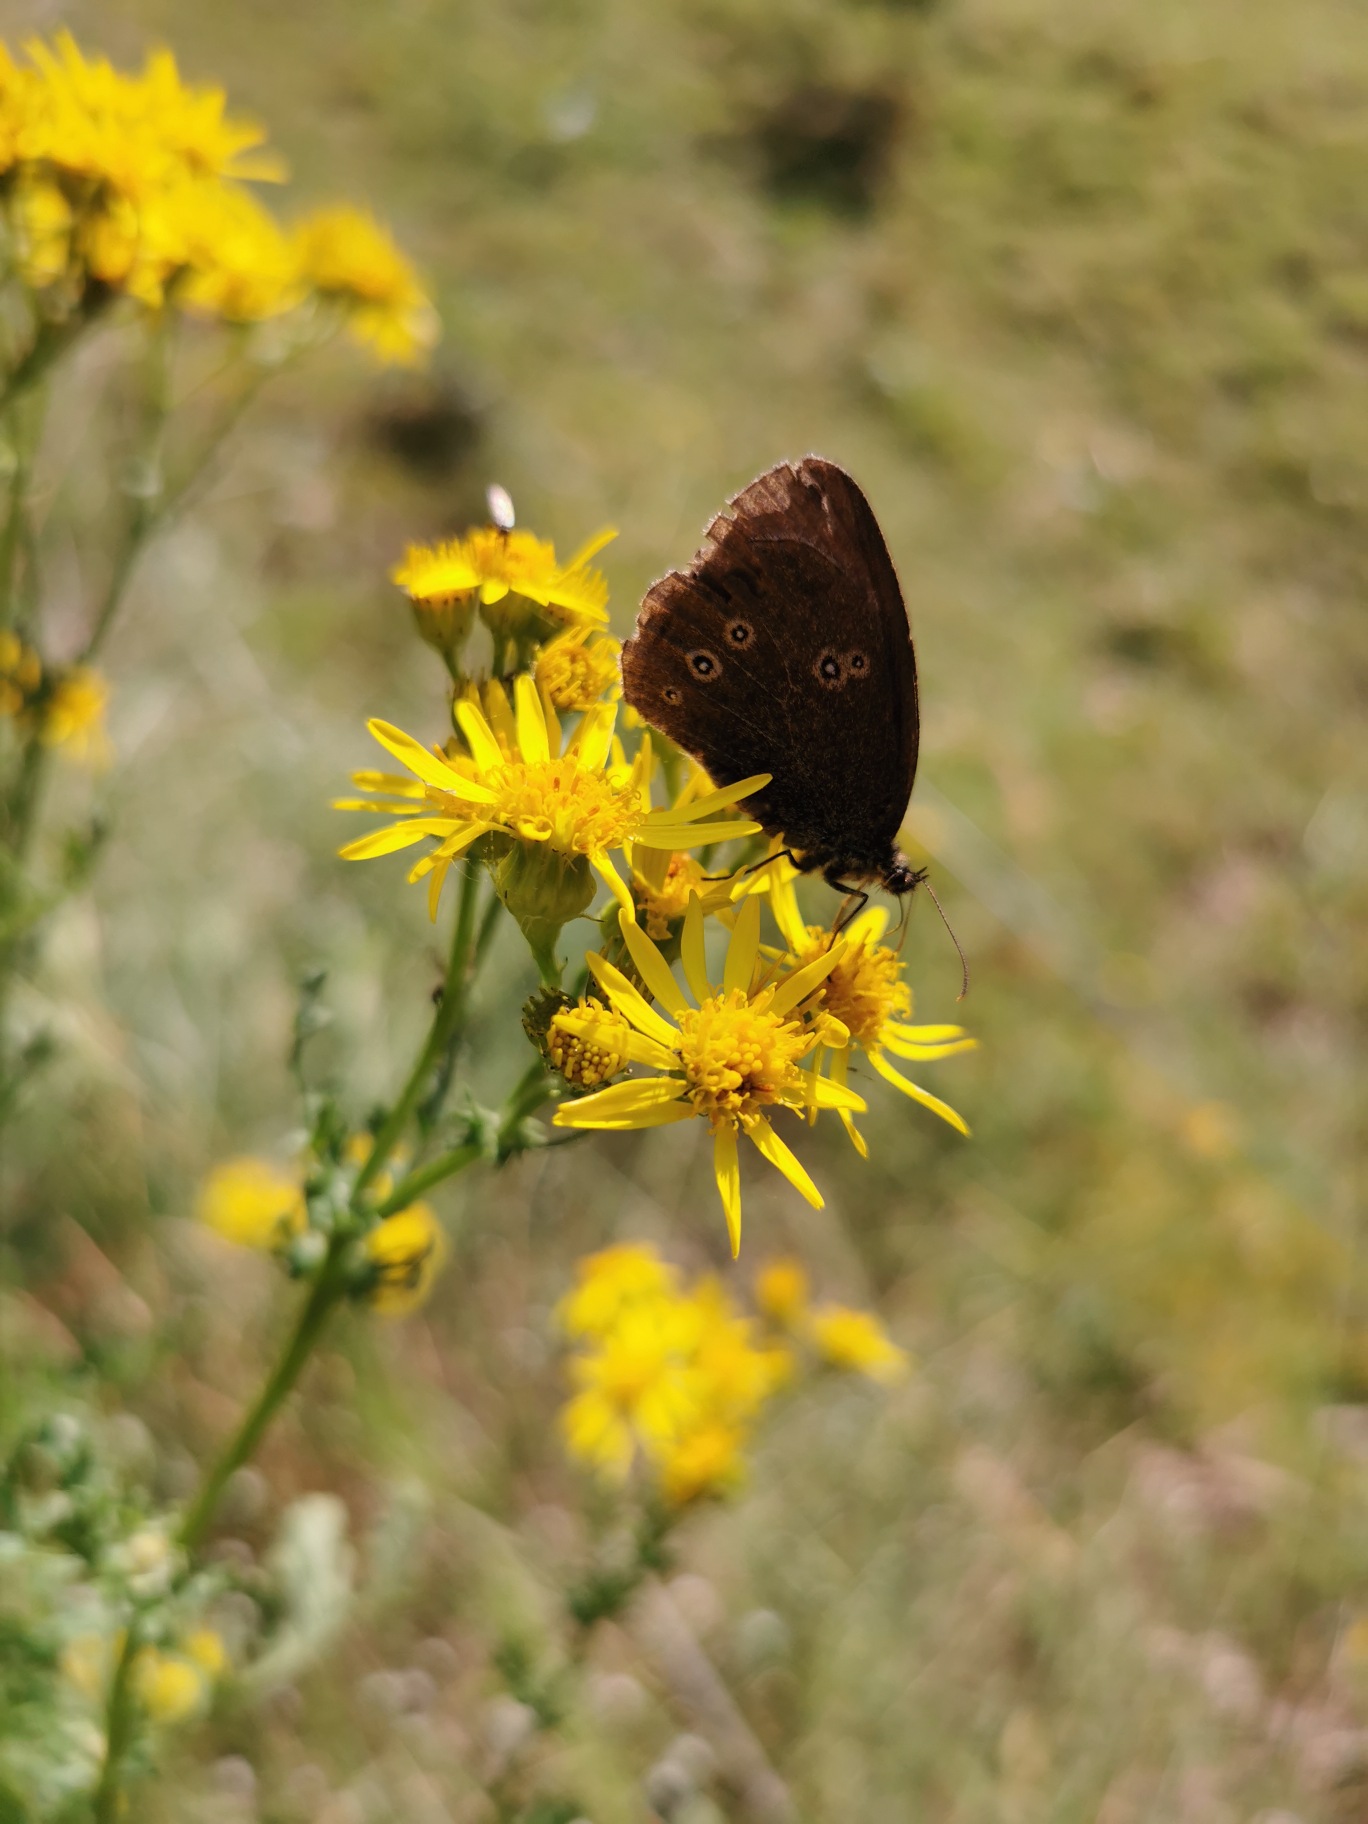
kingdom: Animalia
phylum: Arthropoda
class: Insecta
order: Lepidoptera
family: Nymphalidae
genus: Aphantopus
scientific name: Aphantopus hyperantus
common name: Engrandøje
